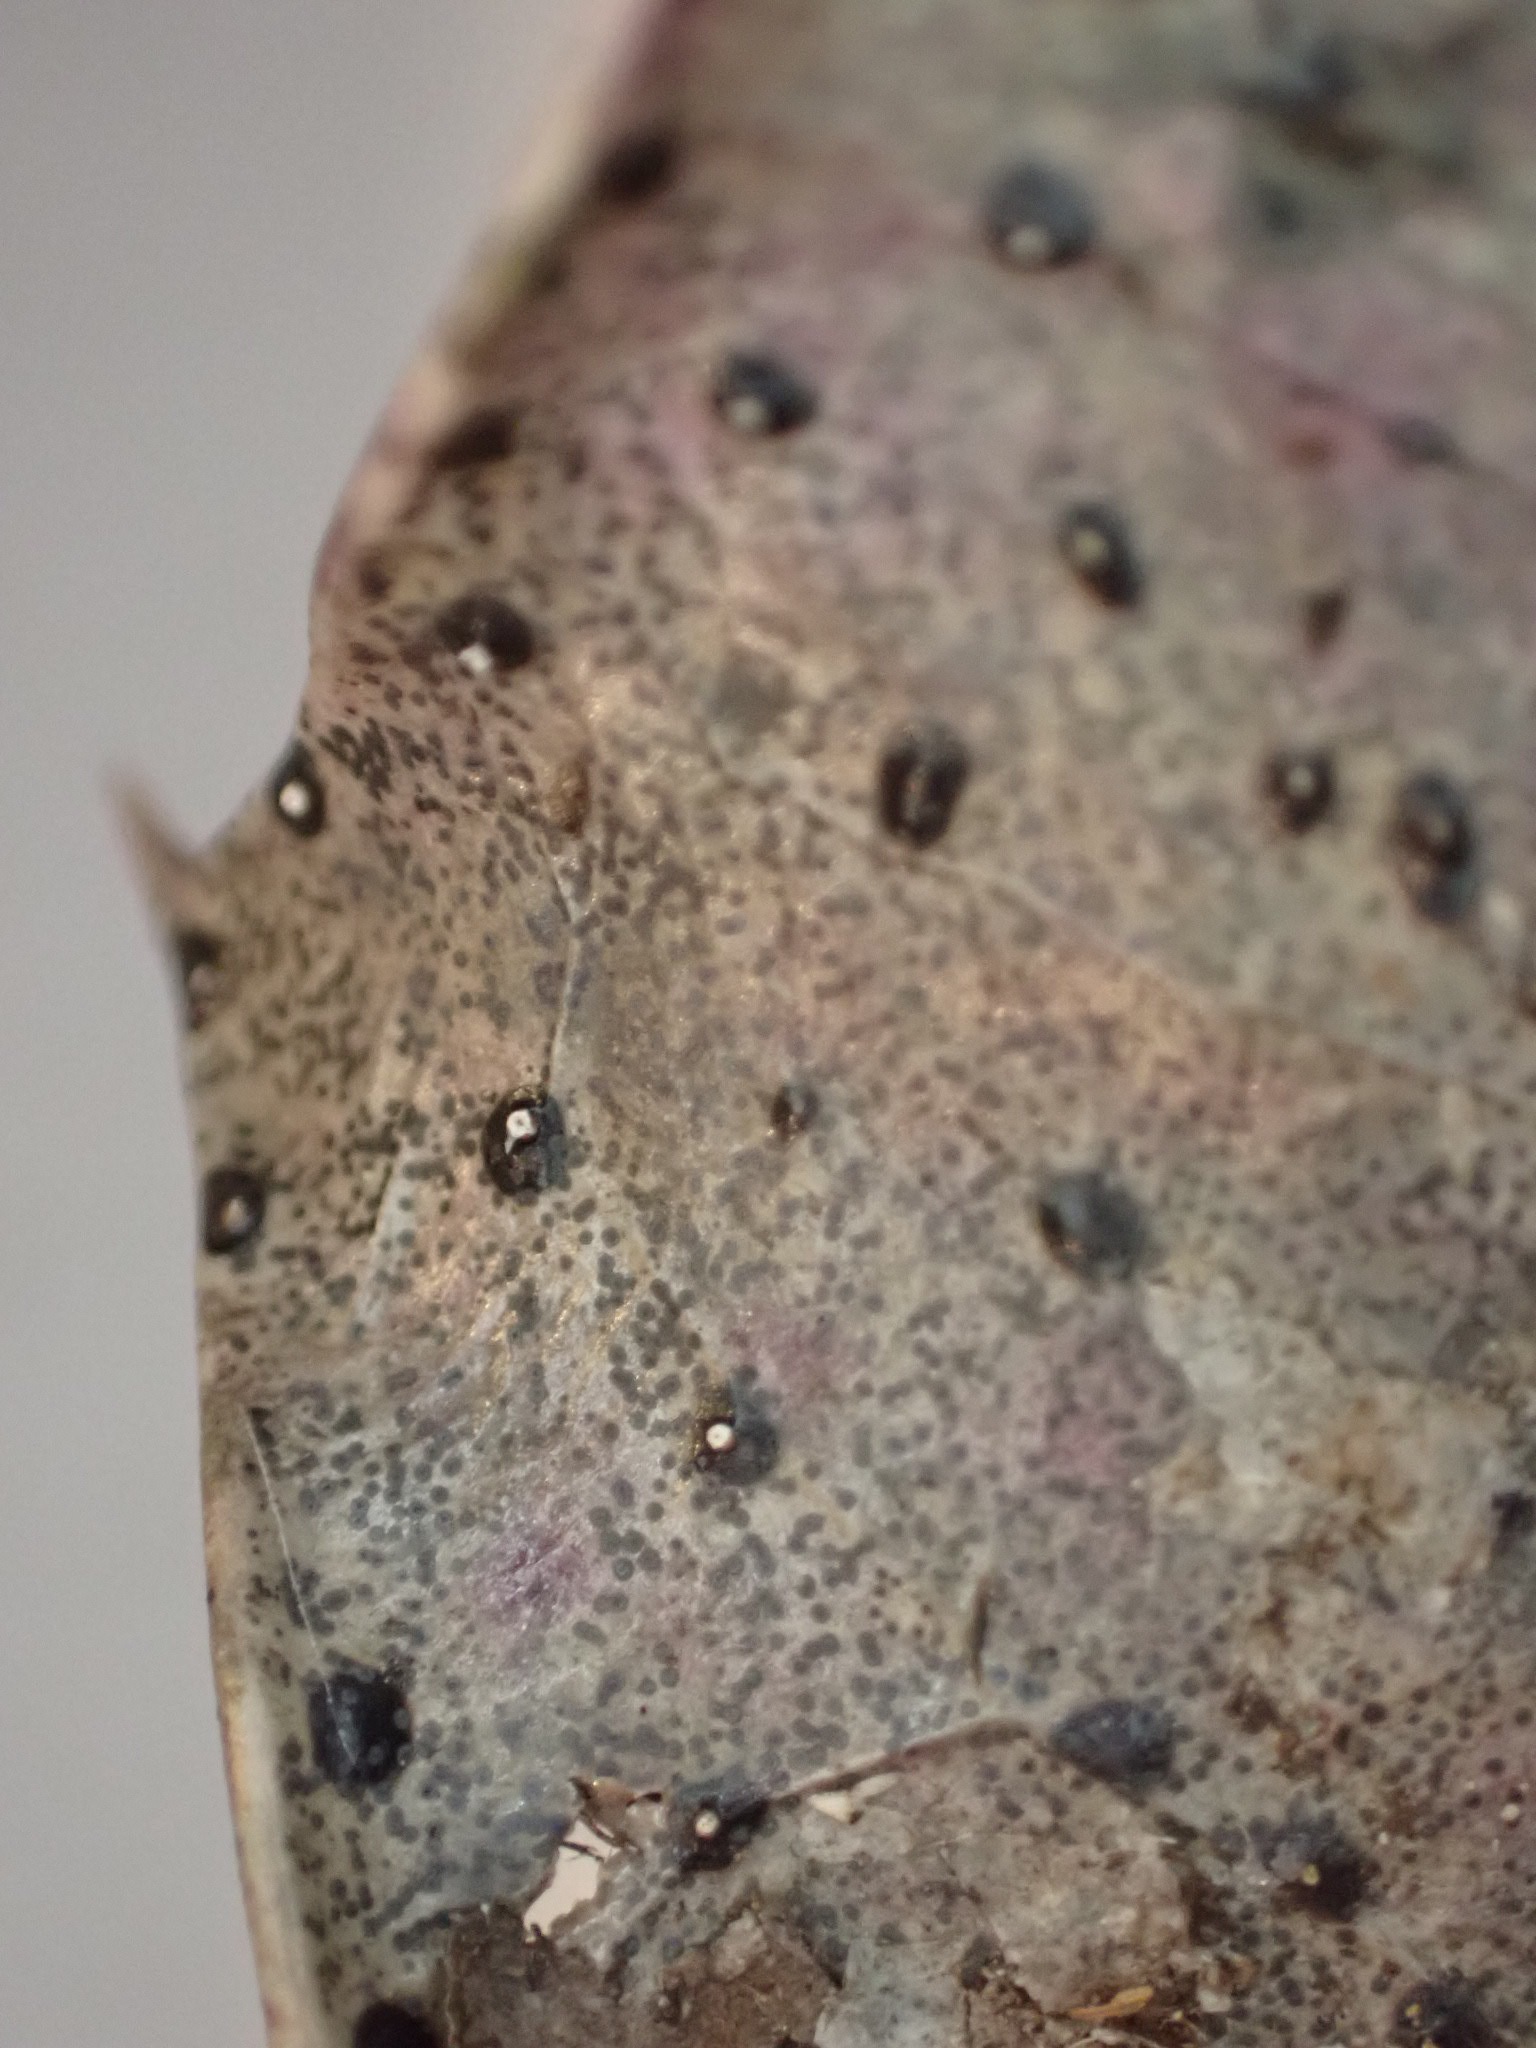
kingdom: Fungi
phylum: Ascomycota
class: Leotiomycetes
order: Phacidiales
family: Phacidiaceae
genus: Phacidium
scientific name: Phacidium lauri
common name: kristtorn-tandskive
